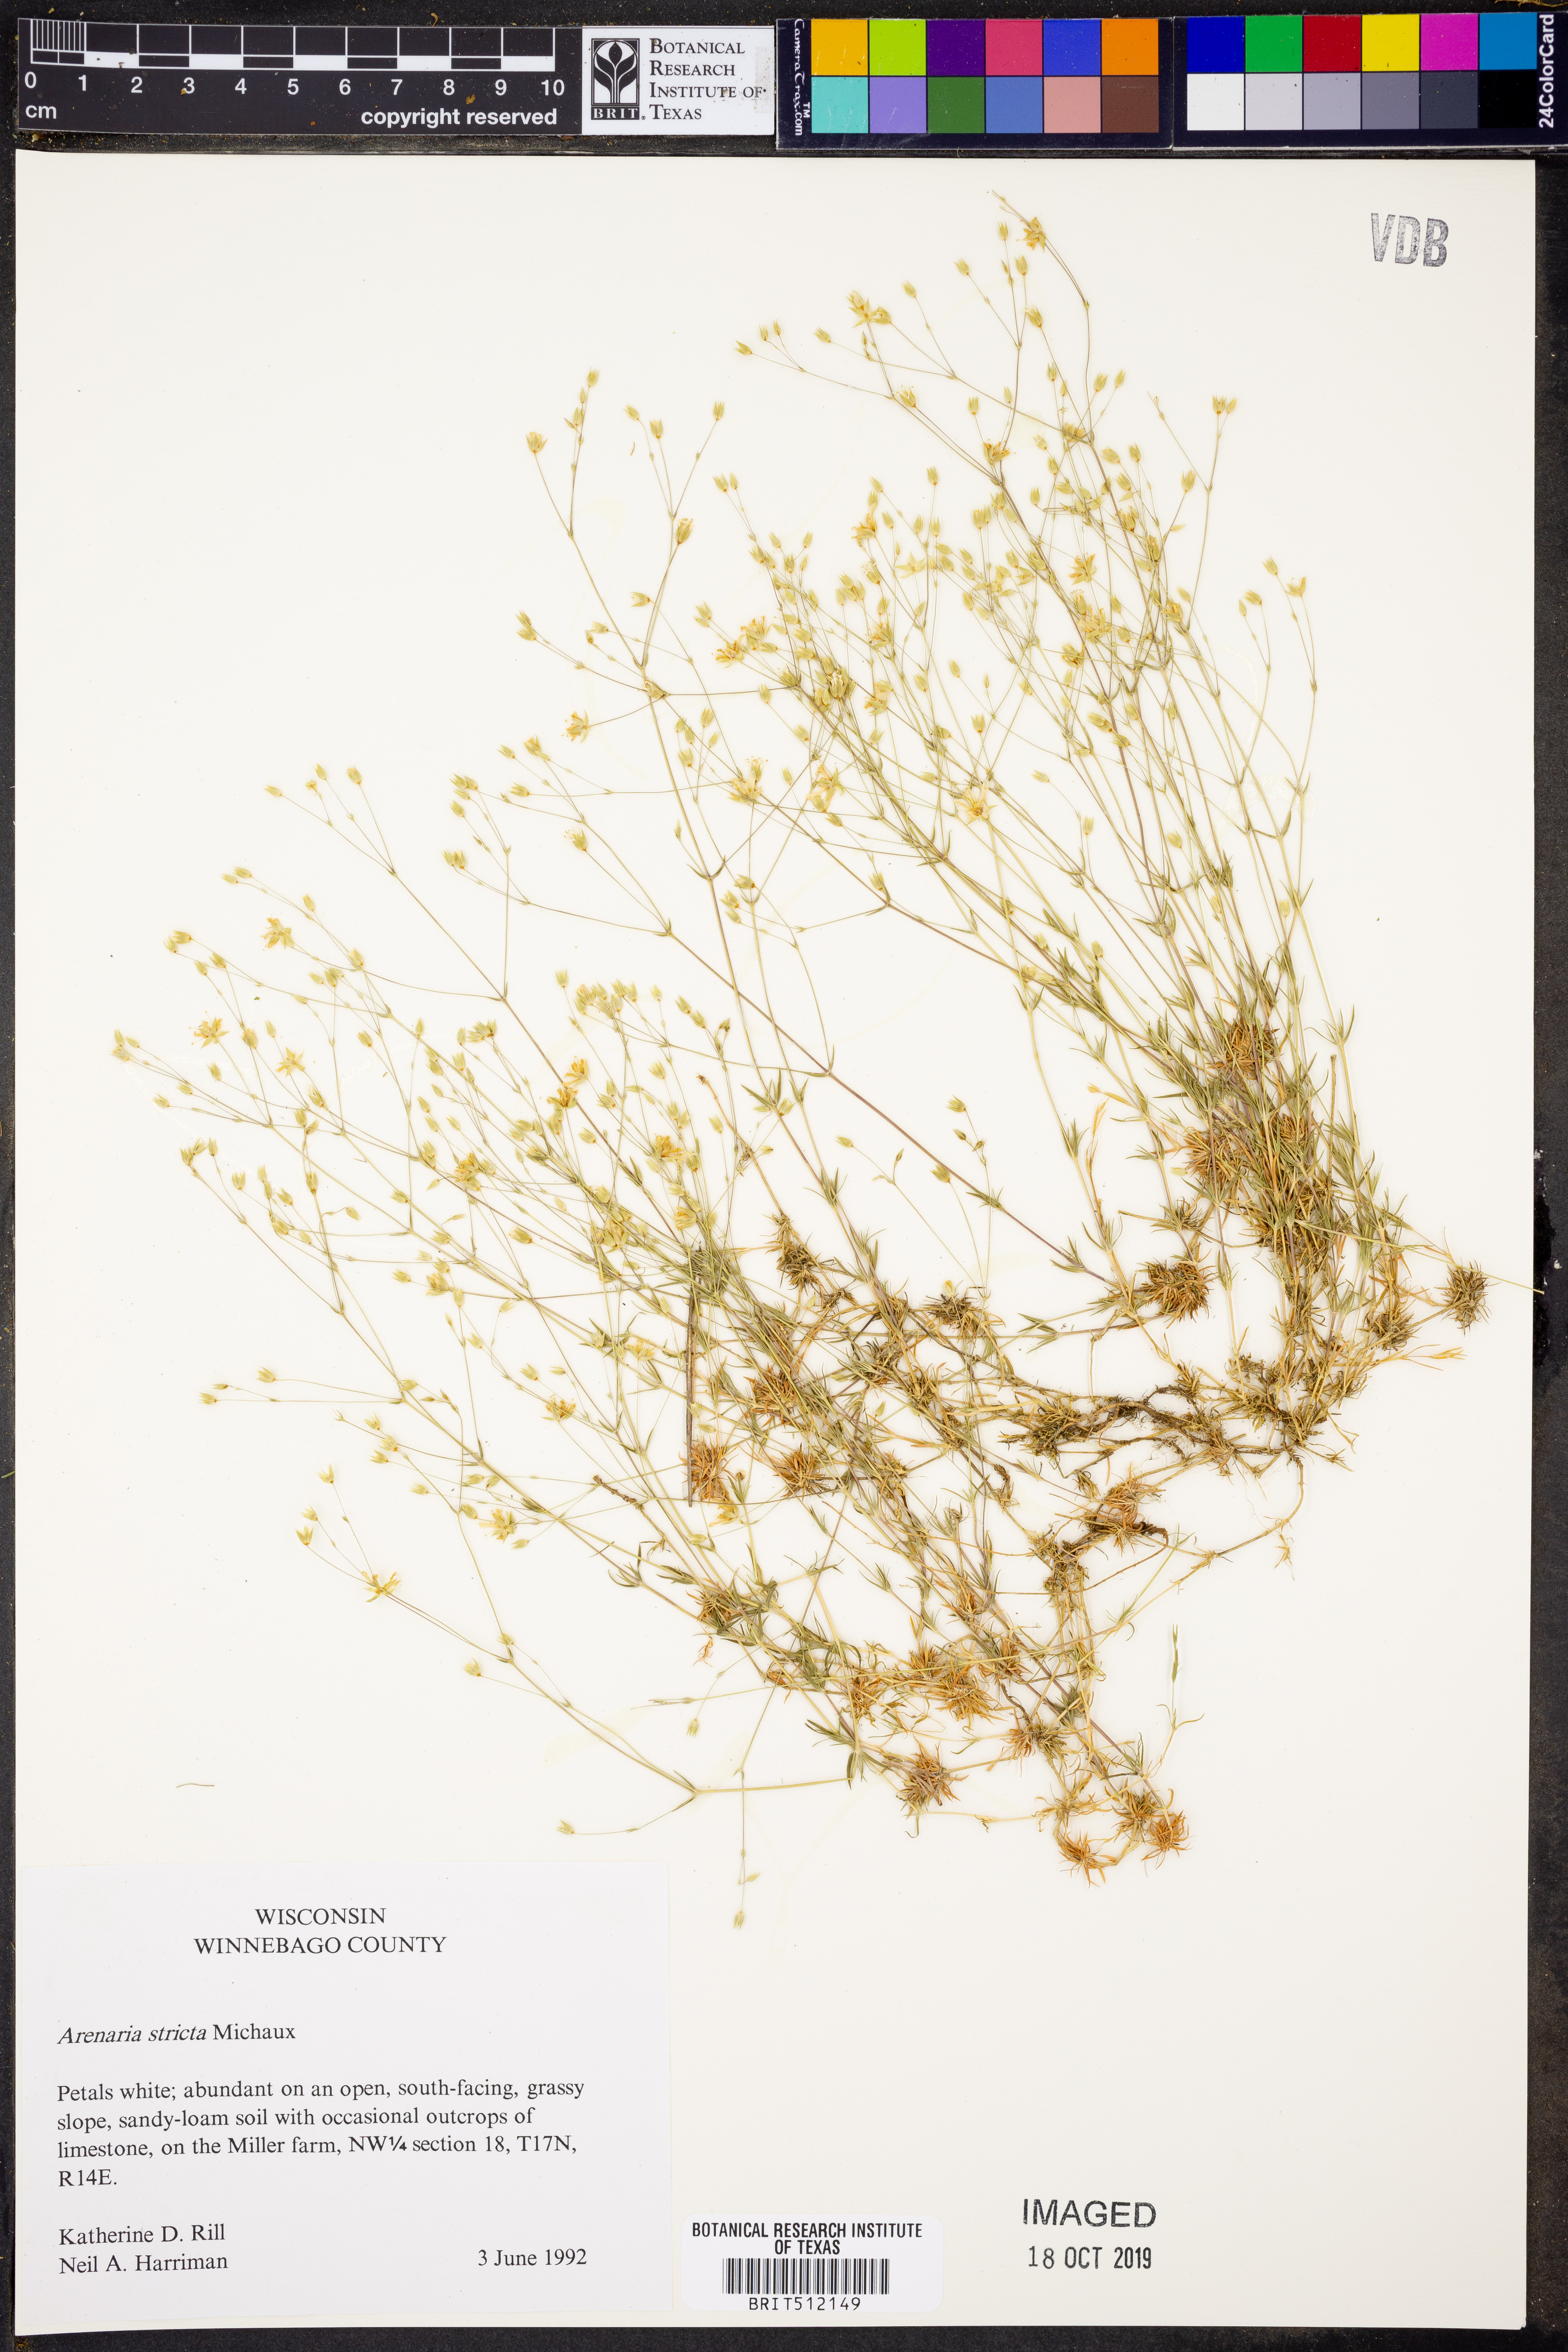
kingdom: Plantae
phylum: Tracheophyta
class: Magnoliopsida
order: Caryophyllales
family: Caryophyllaceae
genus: Sabulina
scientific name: Sabulina michauxii
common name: Michaux's stitchwort
